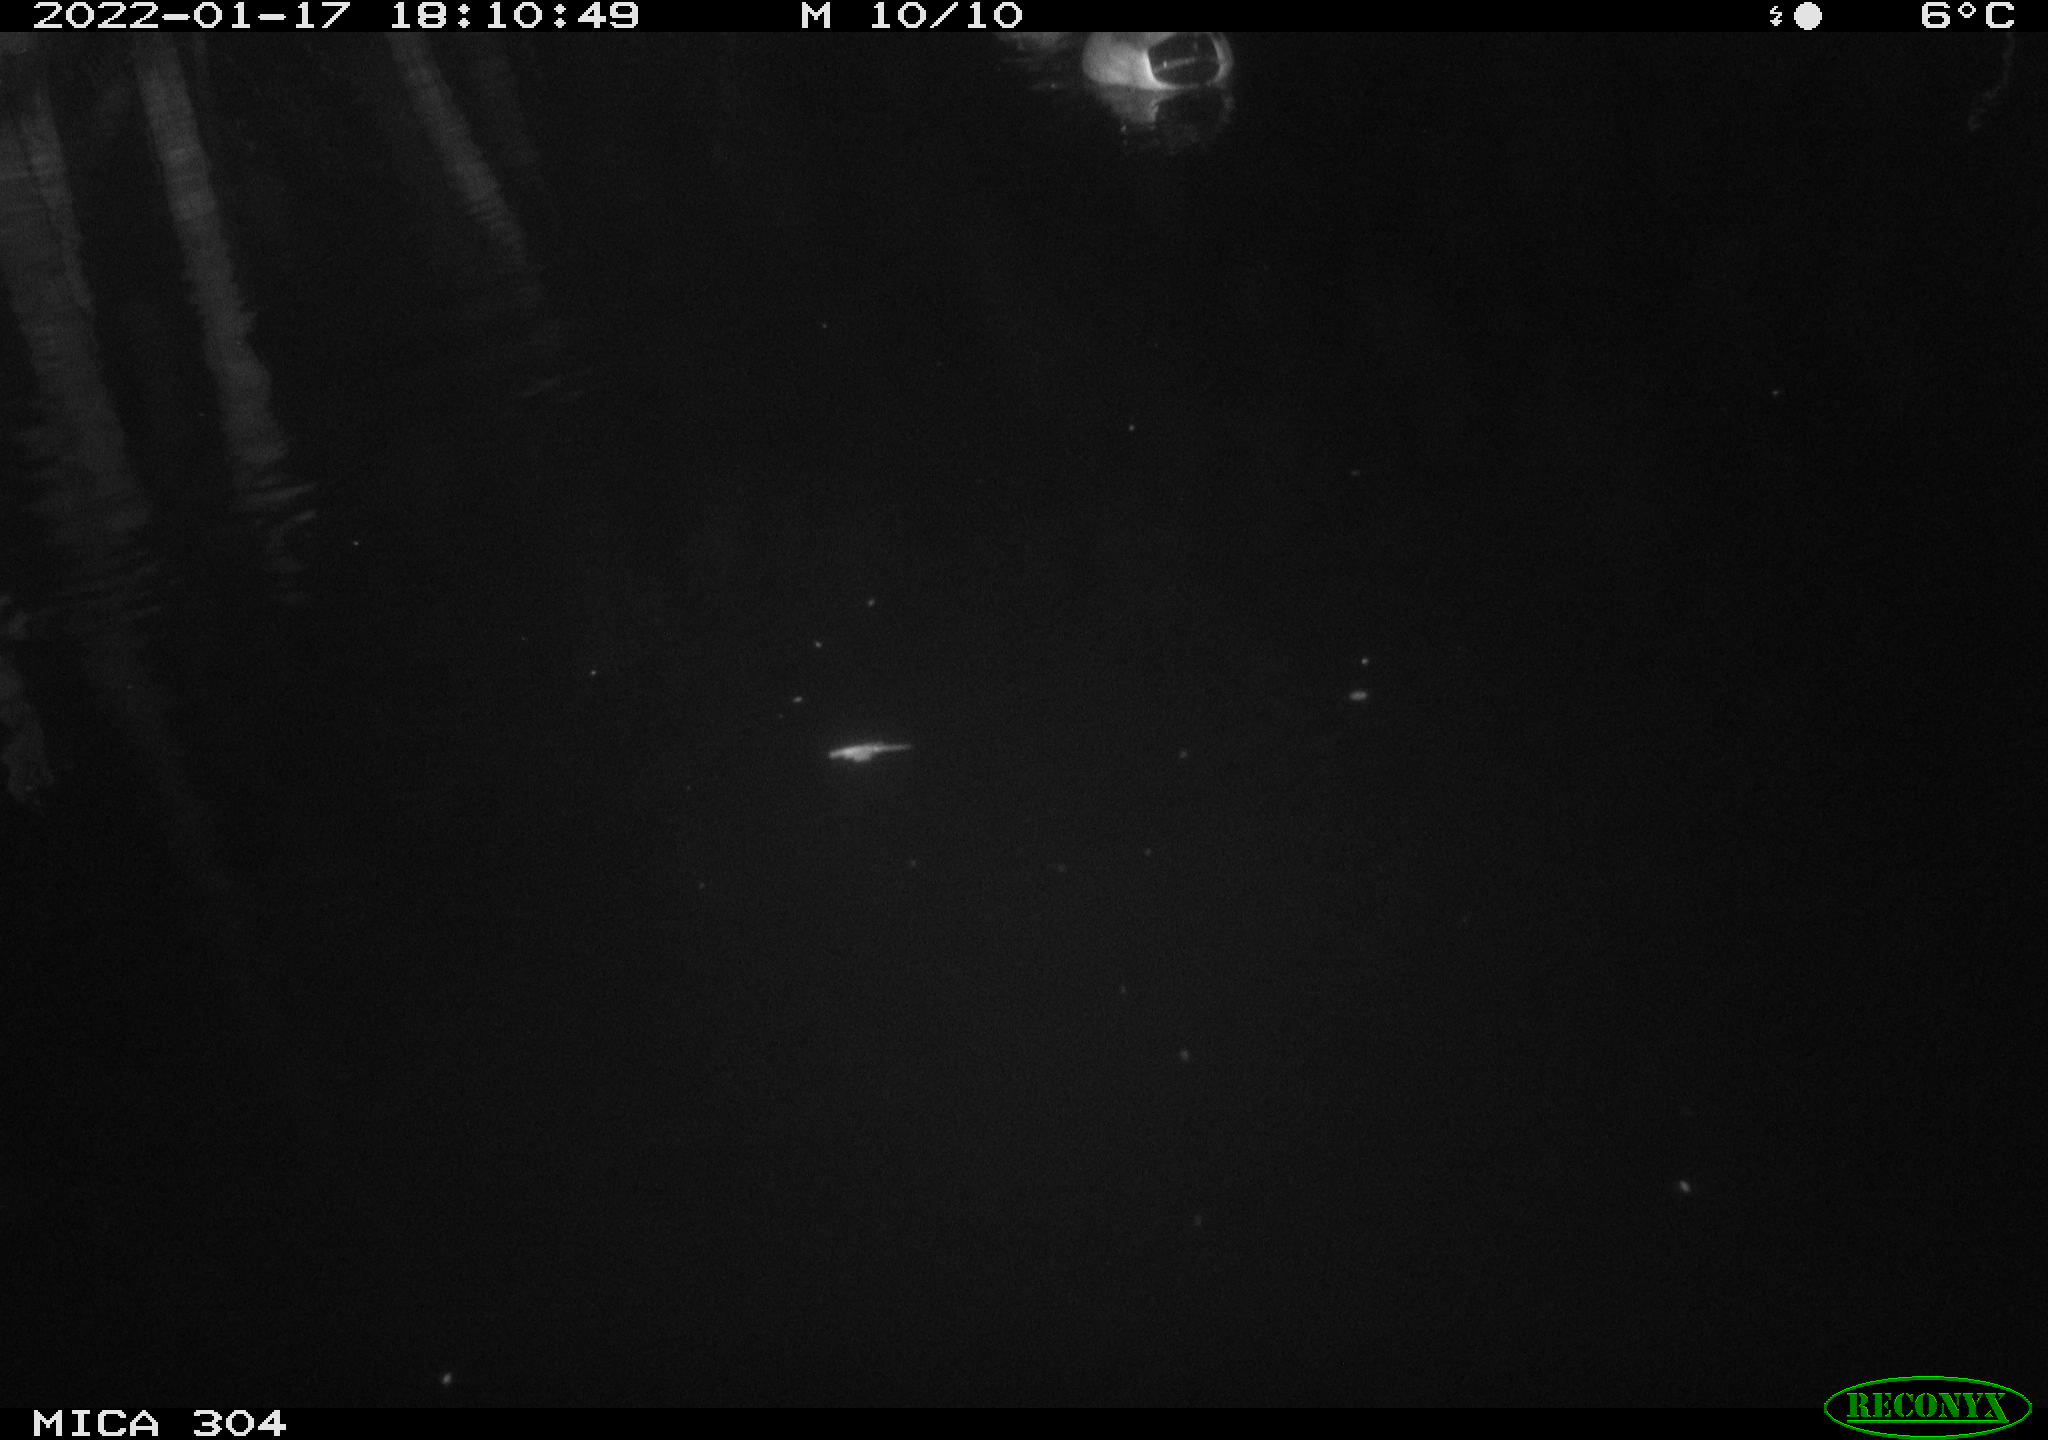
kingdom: Animalia
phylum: Chordata
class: Aves
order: Anseriformes
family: Anatidae
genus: Anas
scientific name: Anas
